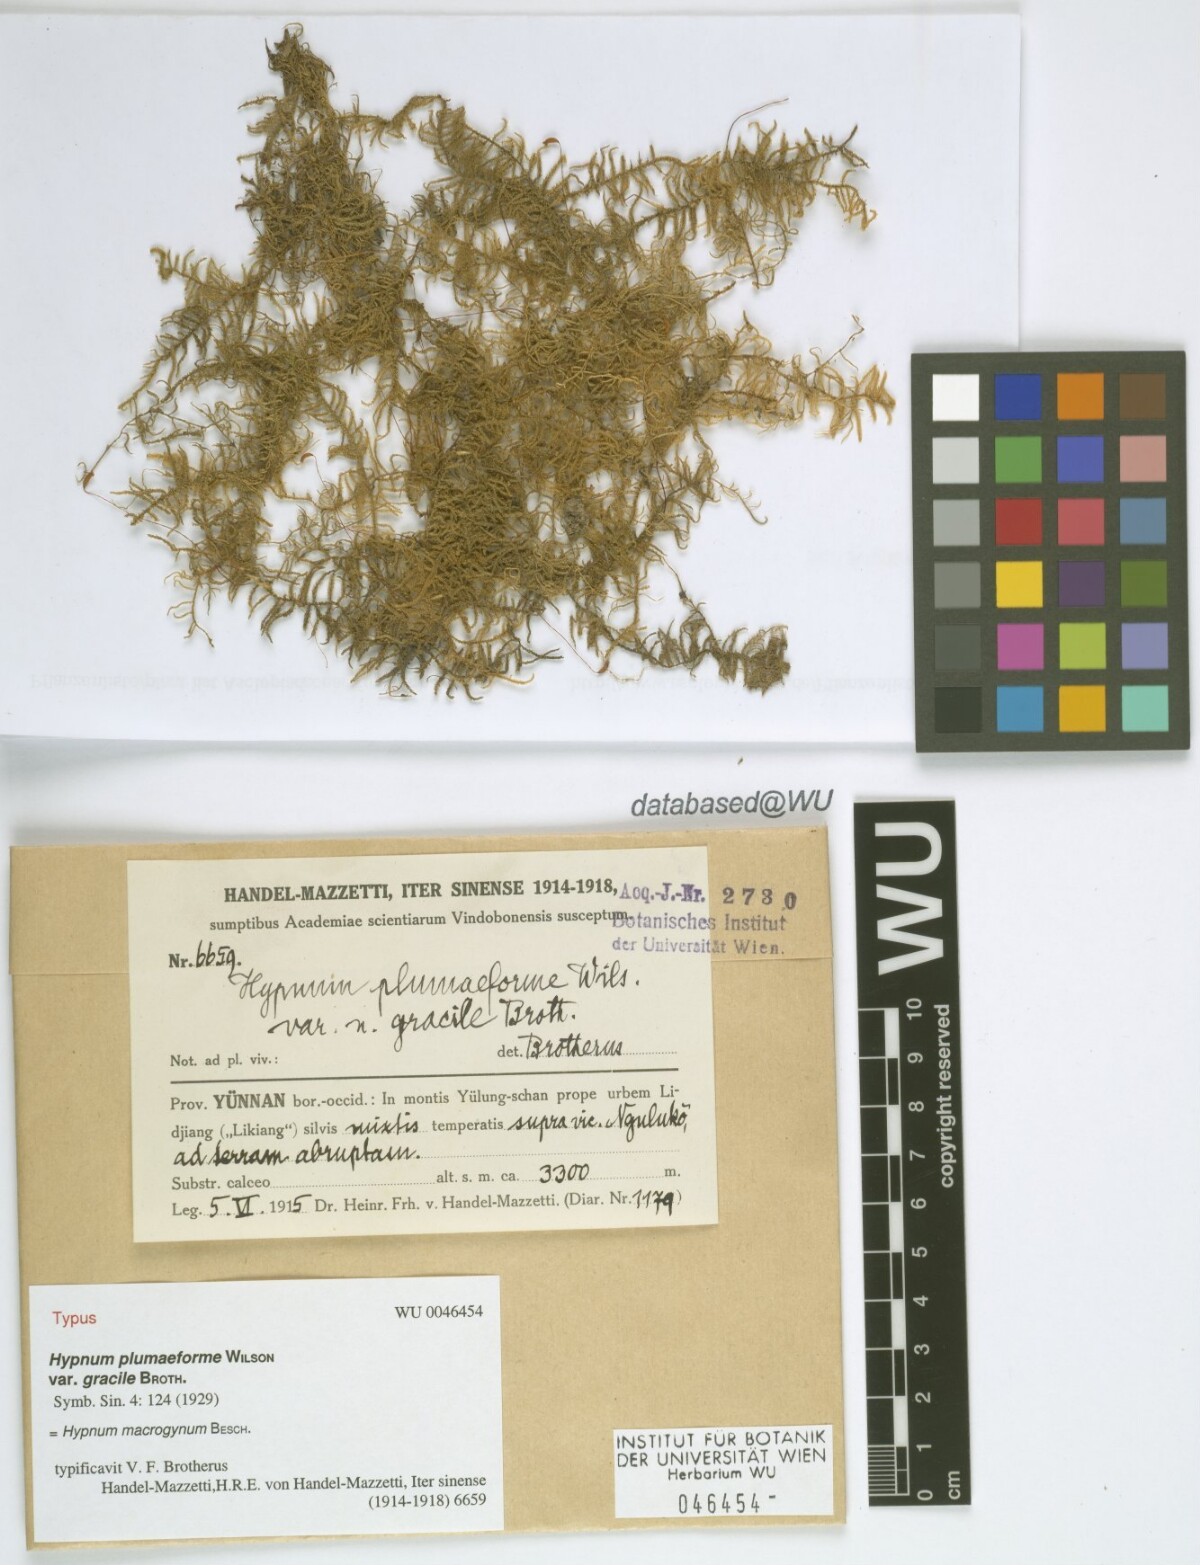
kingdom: Plantae
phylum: Bryophyta
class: Bryopsida
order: Hypnales
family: Pylaisiaceae
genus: Calohypnum
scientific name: Calohypnum macrogynum
